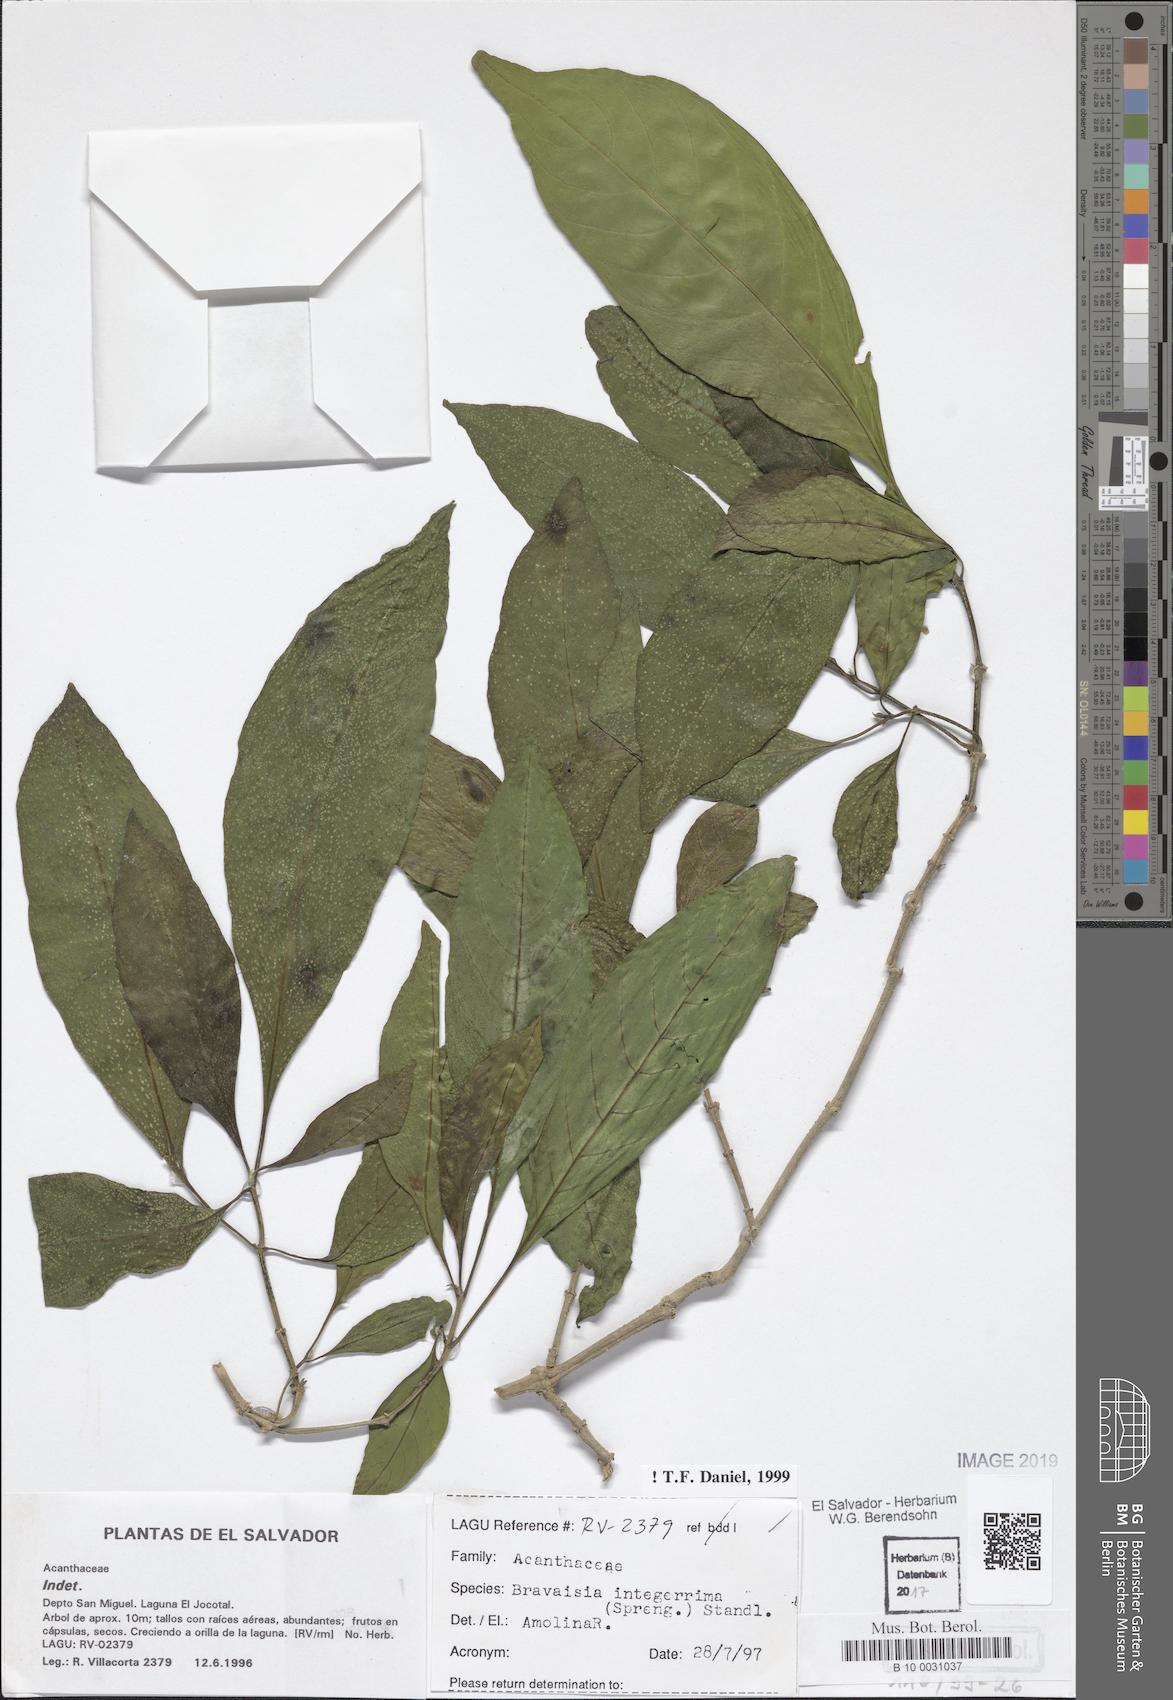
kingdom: Plantae
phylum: Tracheophyta
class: Magnoliopsida
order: Lamiales
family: Acanthaceae
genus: Bravaisia
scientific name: Bravaisia integerrima
